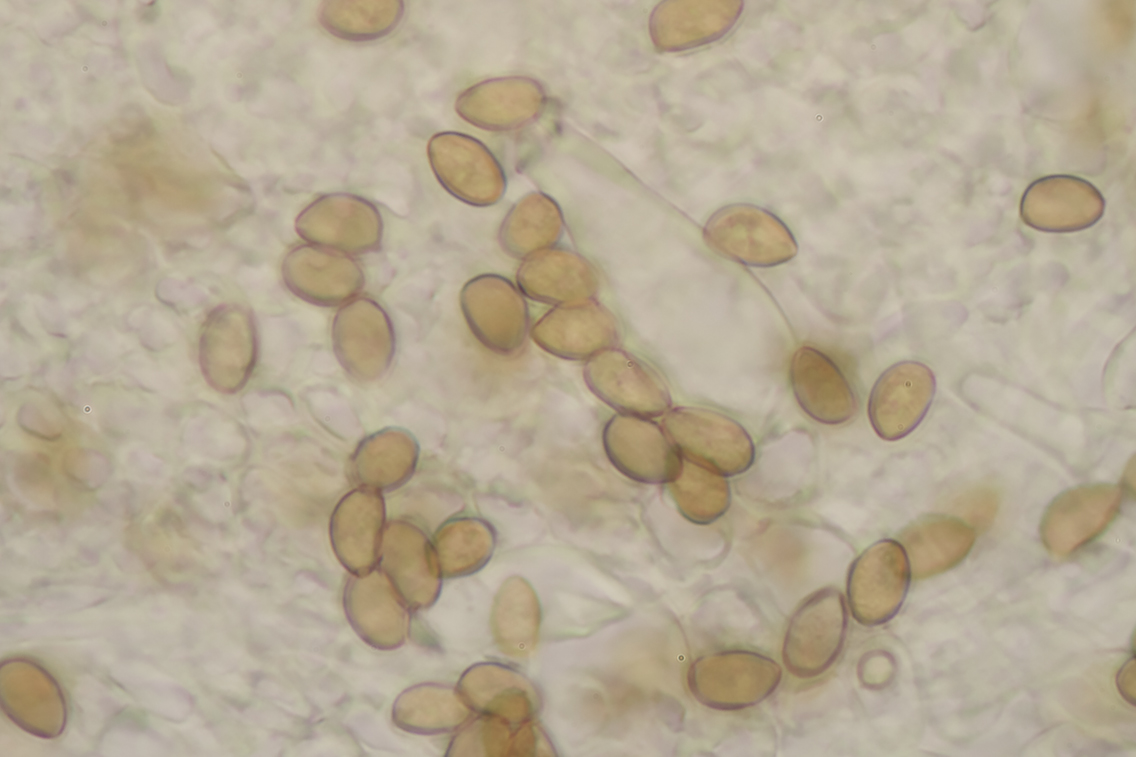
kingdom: Fungi
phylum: Basidiomycota
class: Agaricomycetes
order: Agaricales
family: Inocybaceae
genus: Inocybe
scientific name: Inocybe tigrina
